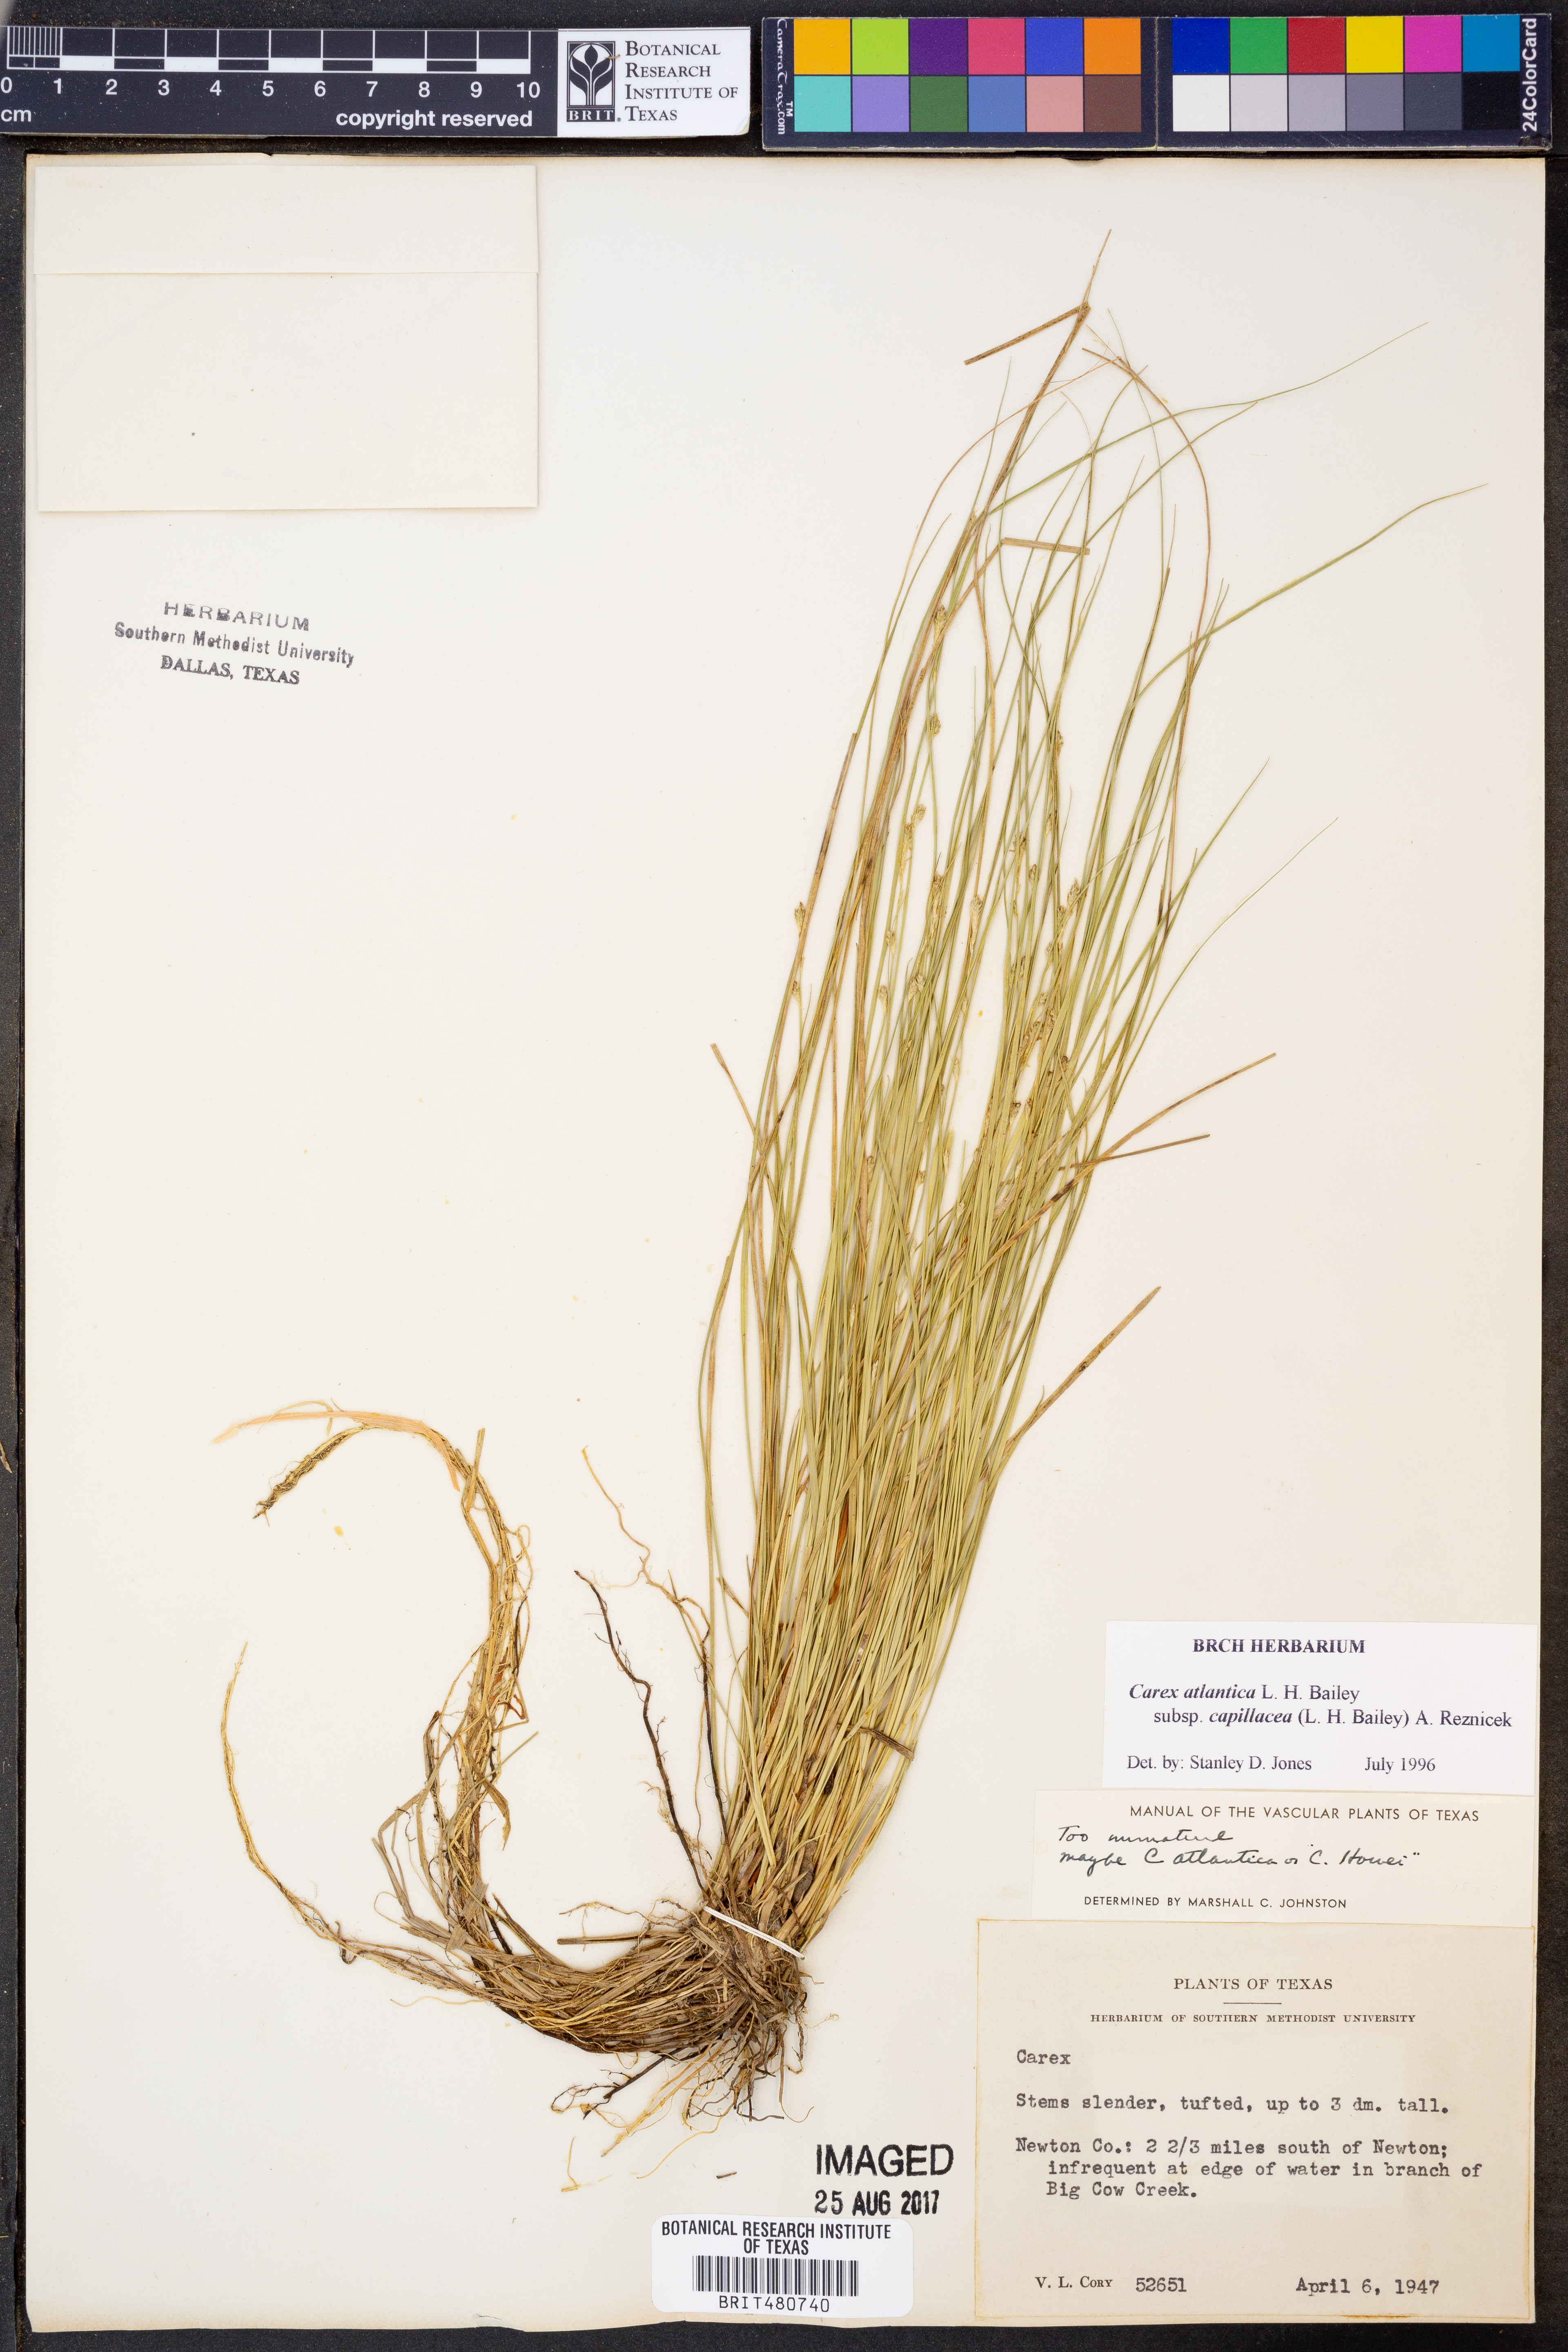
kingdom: Plantae
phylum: Tracheophyta
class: Liliopsida
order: Poales
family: Cyperaceae
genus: Carex
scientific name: Carex atlantica
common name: Atlantic sedge
